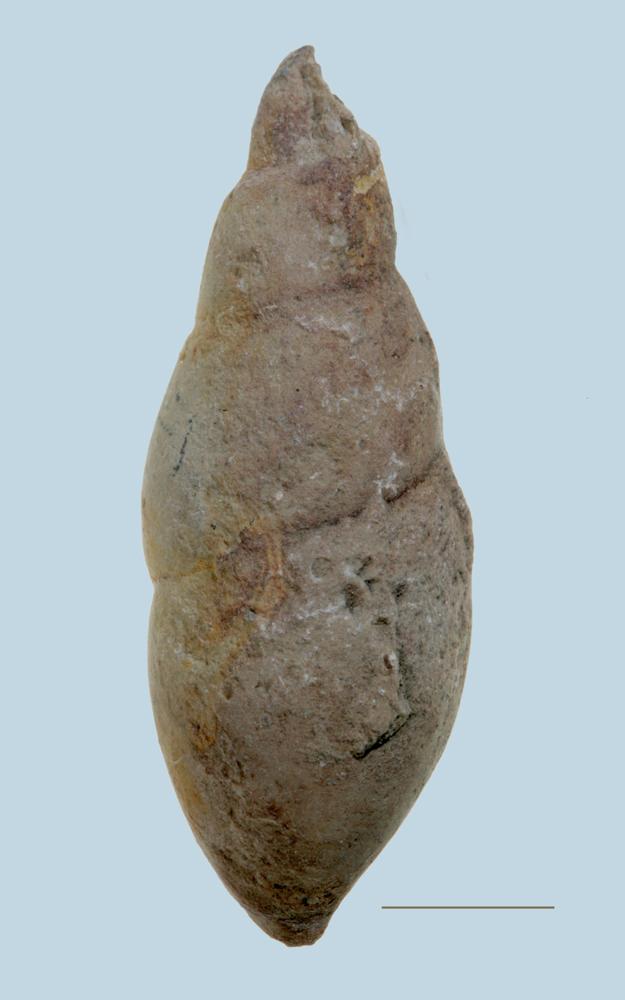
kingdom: Animalia
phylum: Mollusca
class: Gastropoda
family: Subulitidae
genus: Subulites
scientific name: Subulites amphora
